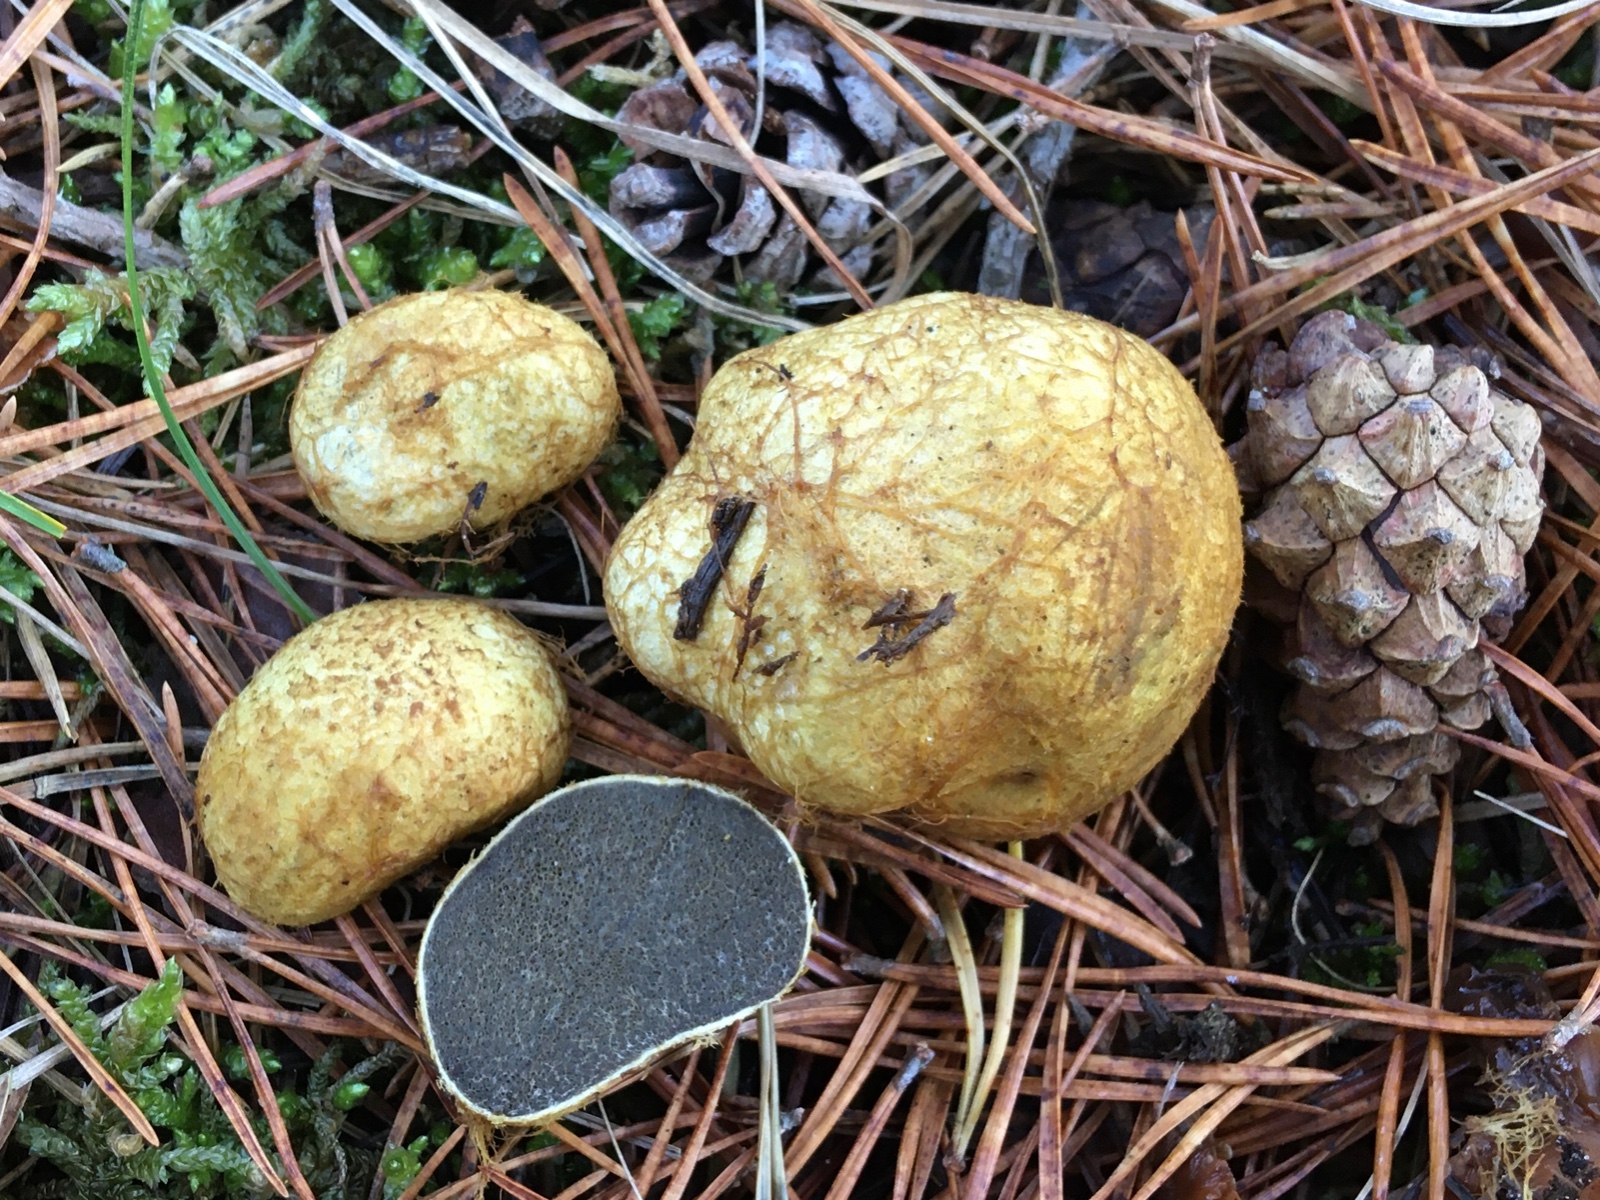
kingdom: Fungi
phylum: Basidiomycota
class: Agaricomycetes
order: Boletales
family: Rhizopogonaceae
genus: Rhizopogon
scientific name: Rhizopogon obtextus
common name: gul skægtrøffel
